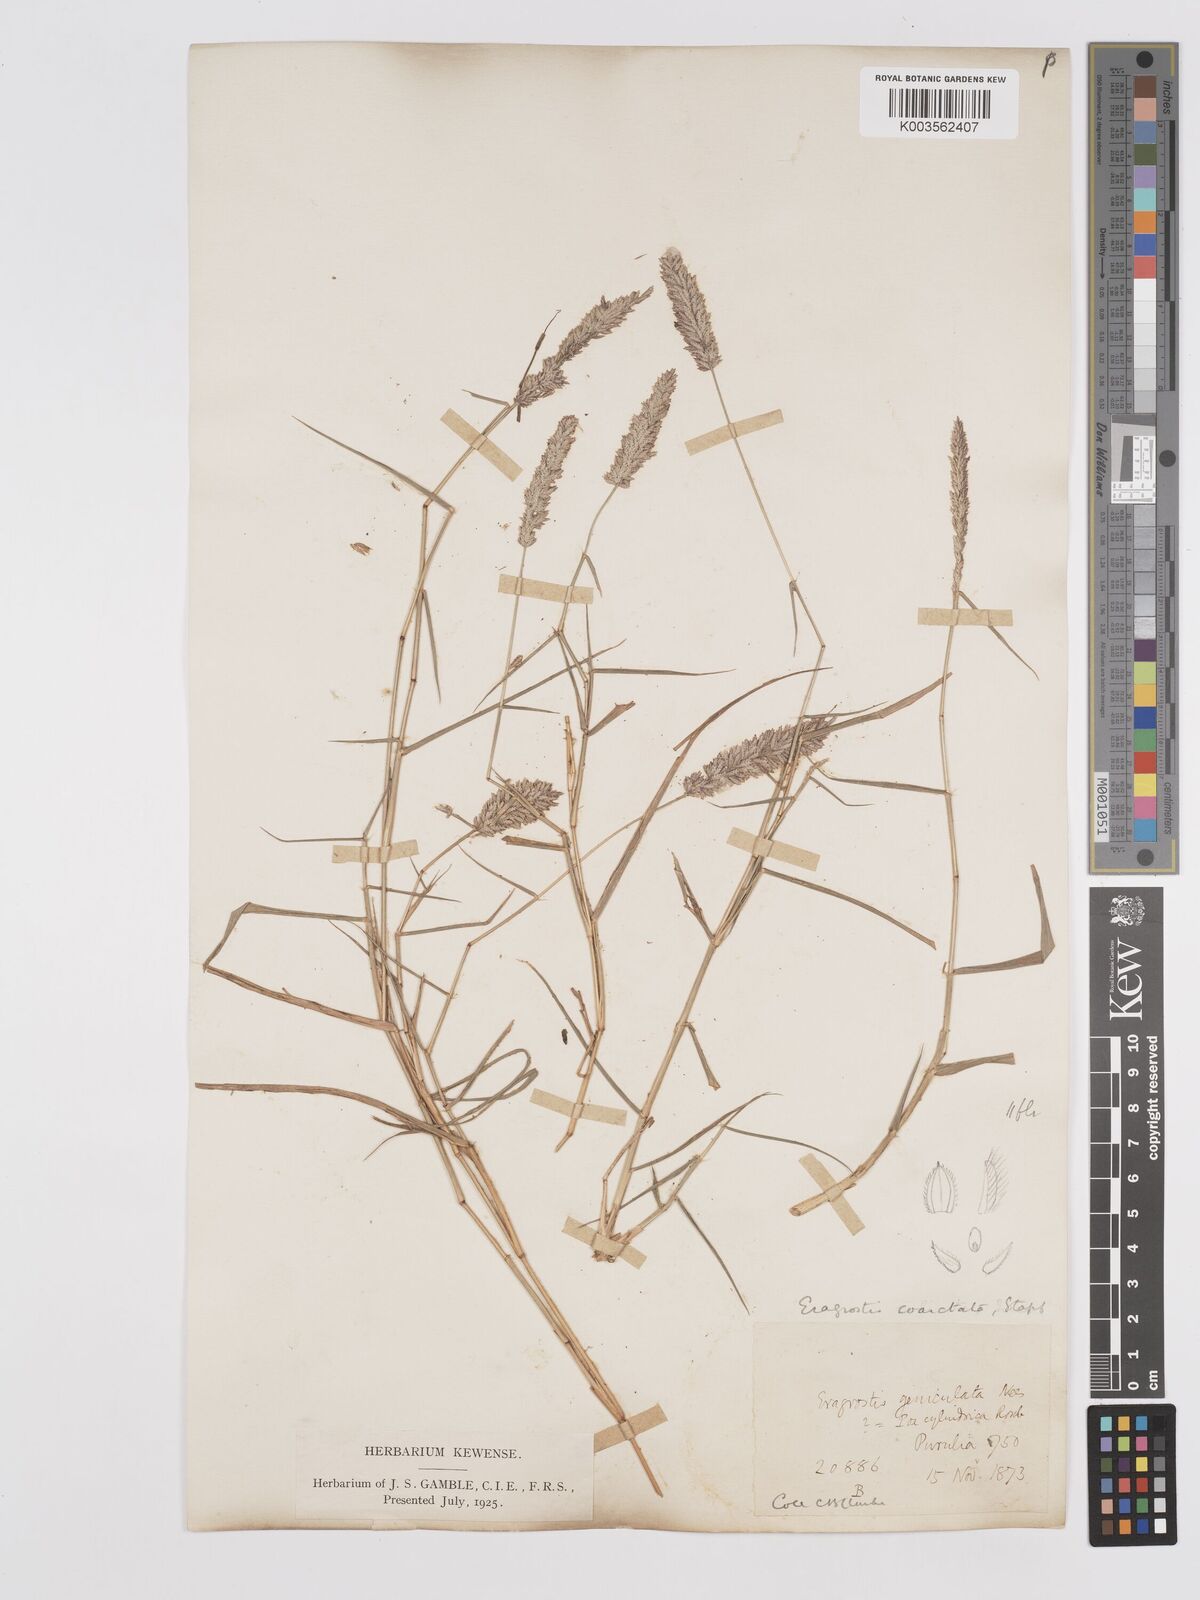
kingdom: Plantae
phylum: Tracheophyta
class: Liliopsida
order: Poales
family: Poaceae
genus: Eragrostis
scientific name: Eragrostis coarctata
